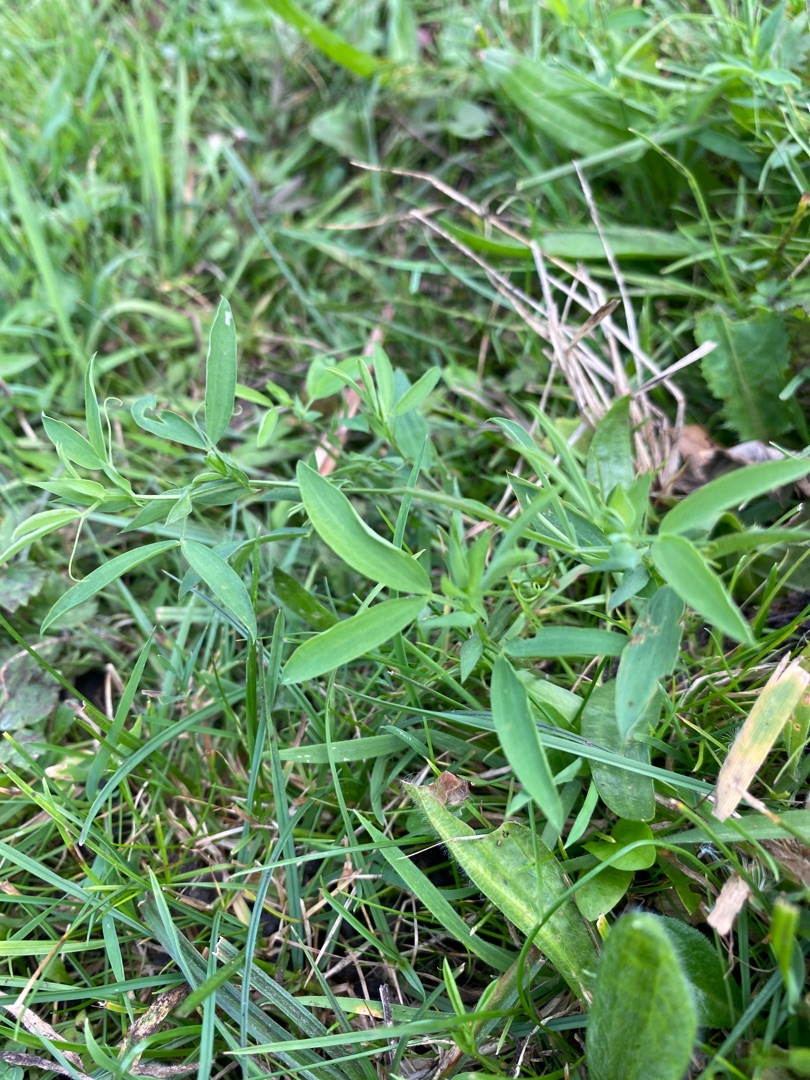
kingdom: Plantae
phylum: Tracheophyta
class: Magnoliopsida
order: Fabales
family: Fabaceae
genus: Lathyrus
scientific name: Lathyrus pratensis
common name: Gul fladbælg
